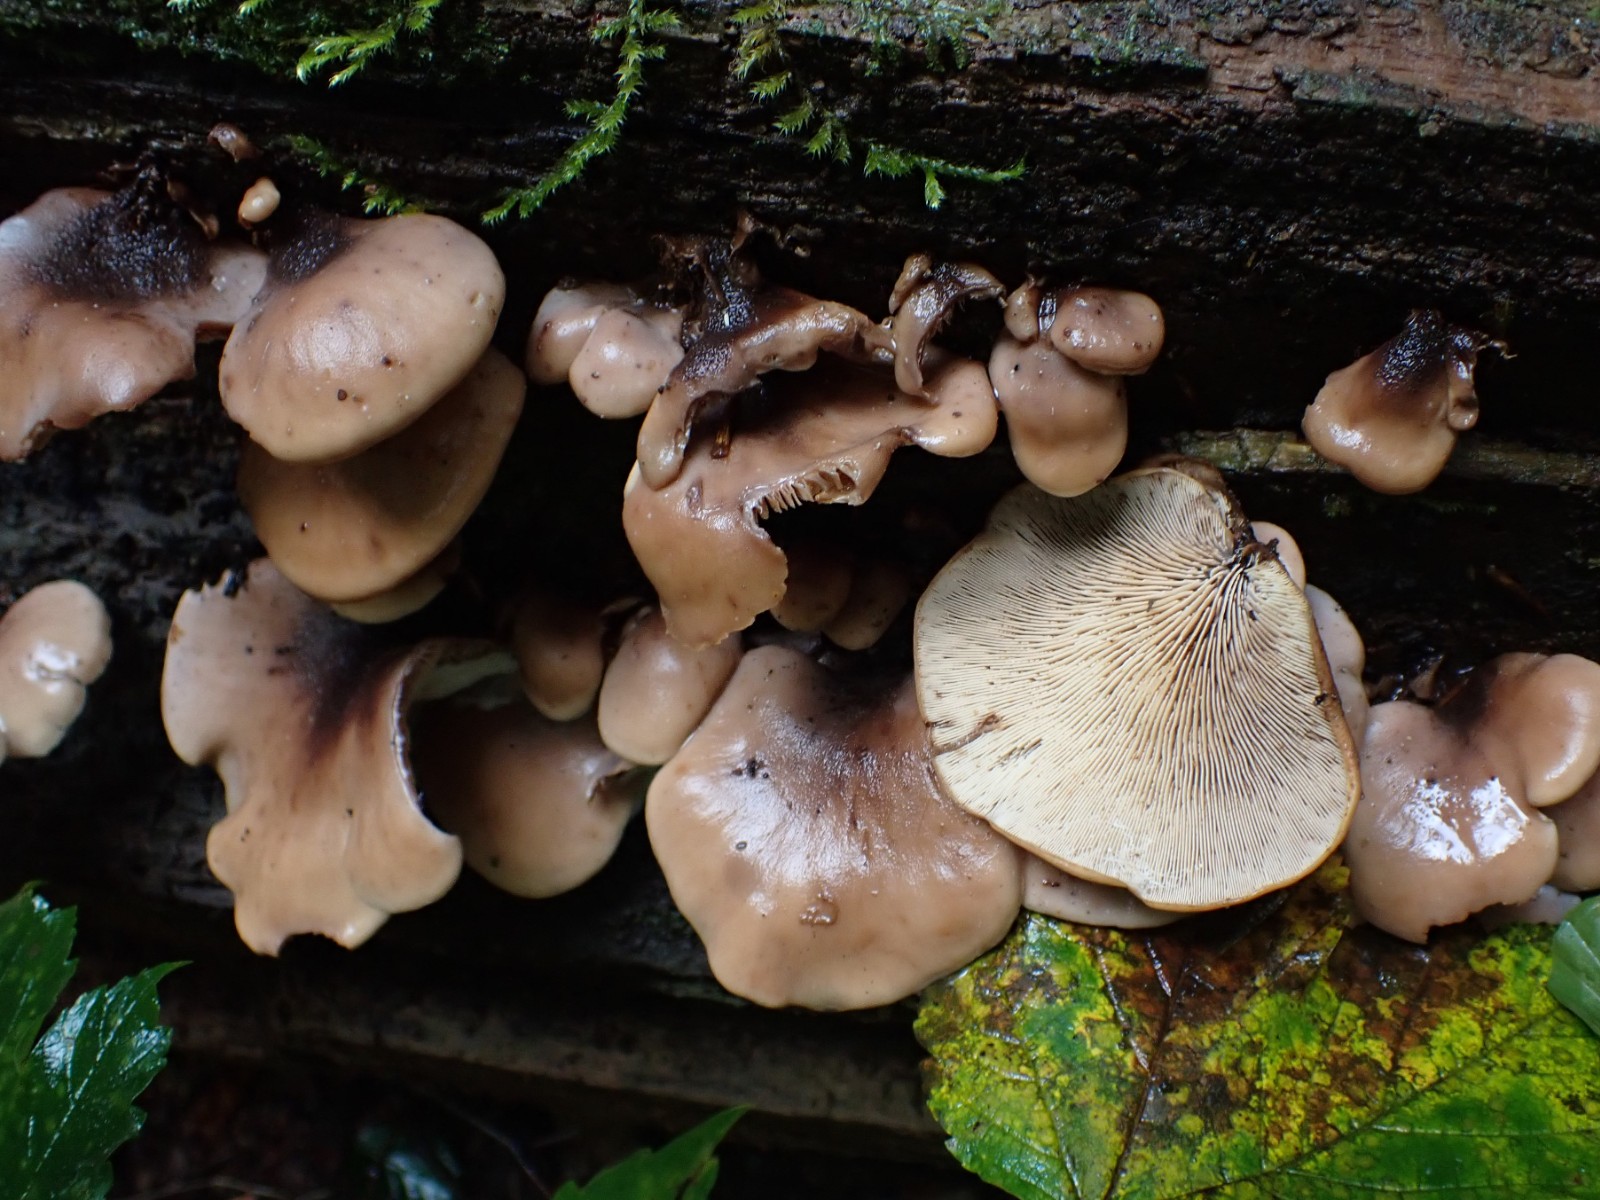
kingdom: Fungi
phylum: Basidiomycota
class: Agaricomycetes
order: Russulales
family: Auriscalpiaceae
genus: Lentinellus
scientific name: Lentinellus ursinus
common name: børstehåret savbladhat
